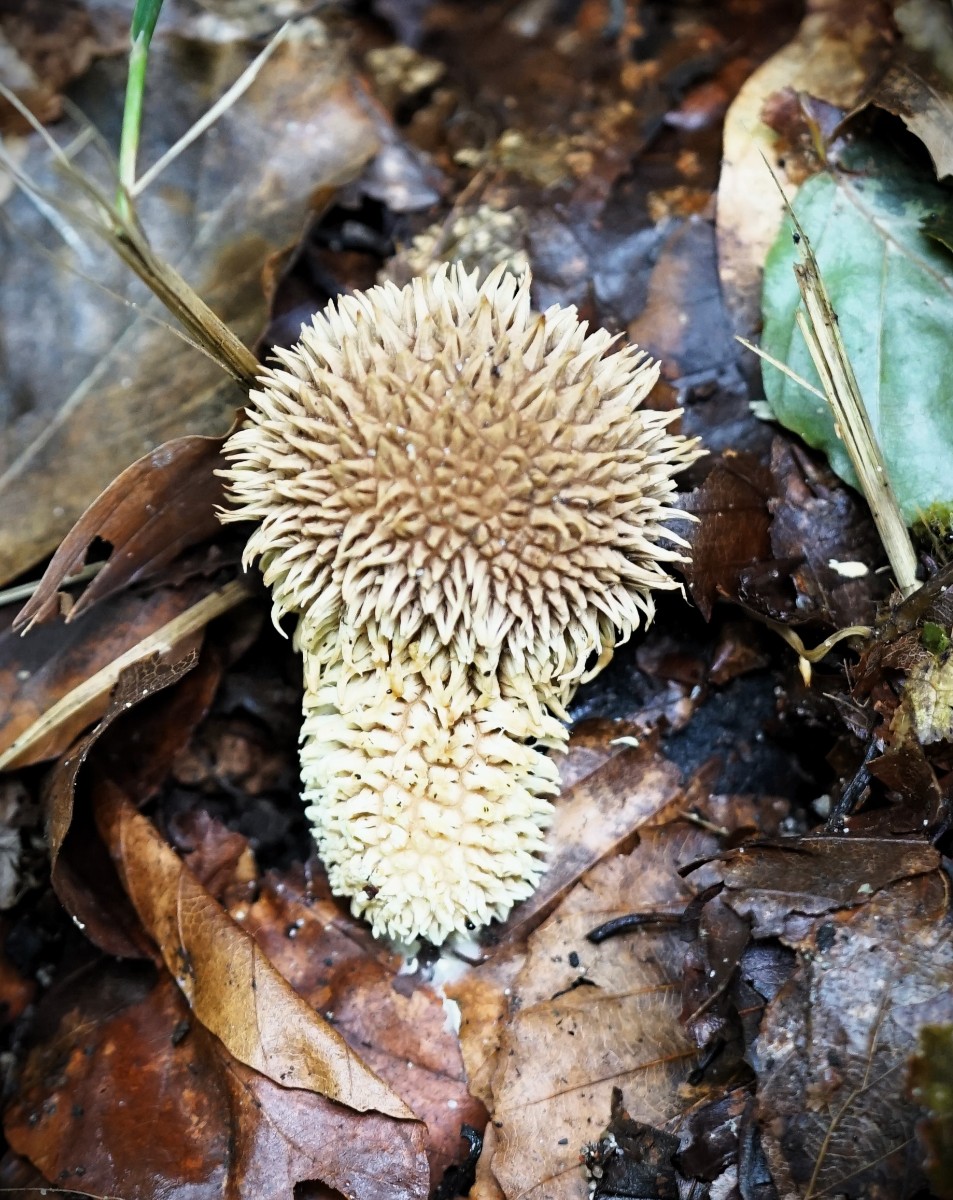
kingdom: Fungi
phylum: Basidiomycota
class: Agaricomycetes
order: Agaricales
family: Lycoperdaceae
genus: Lycoperdon
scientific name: Lycoperdon echinatum
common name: pindsvine-støvbold
